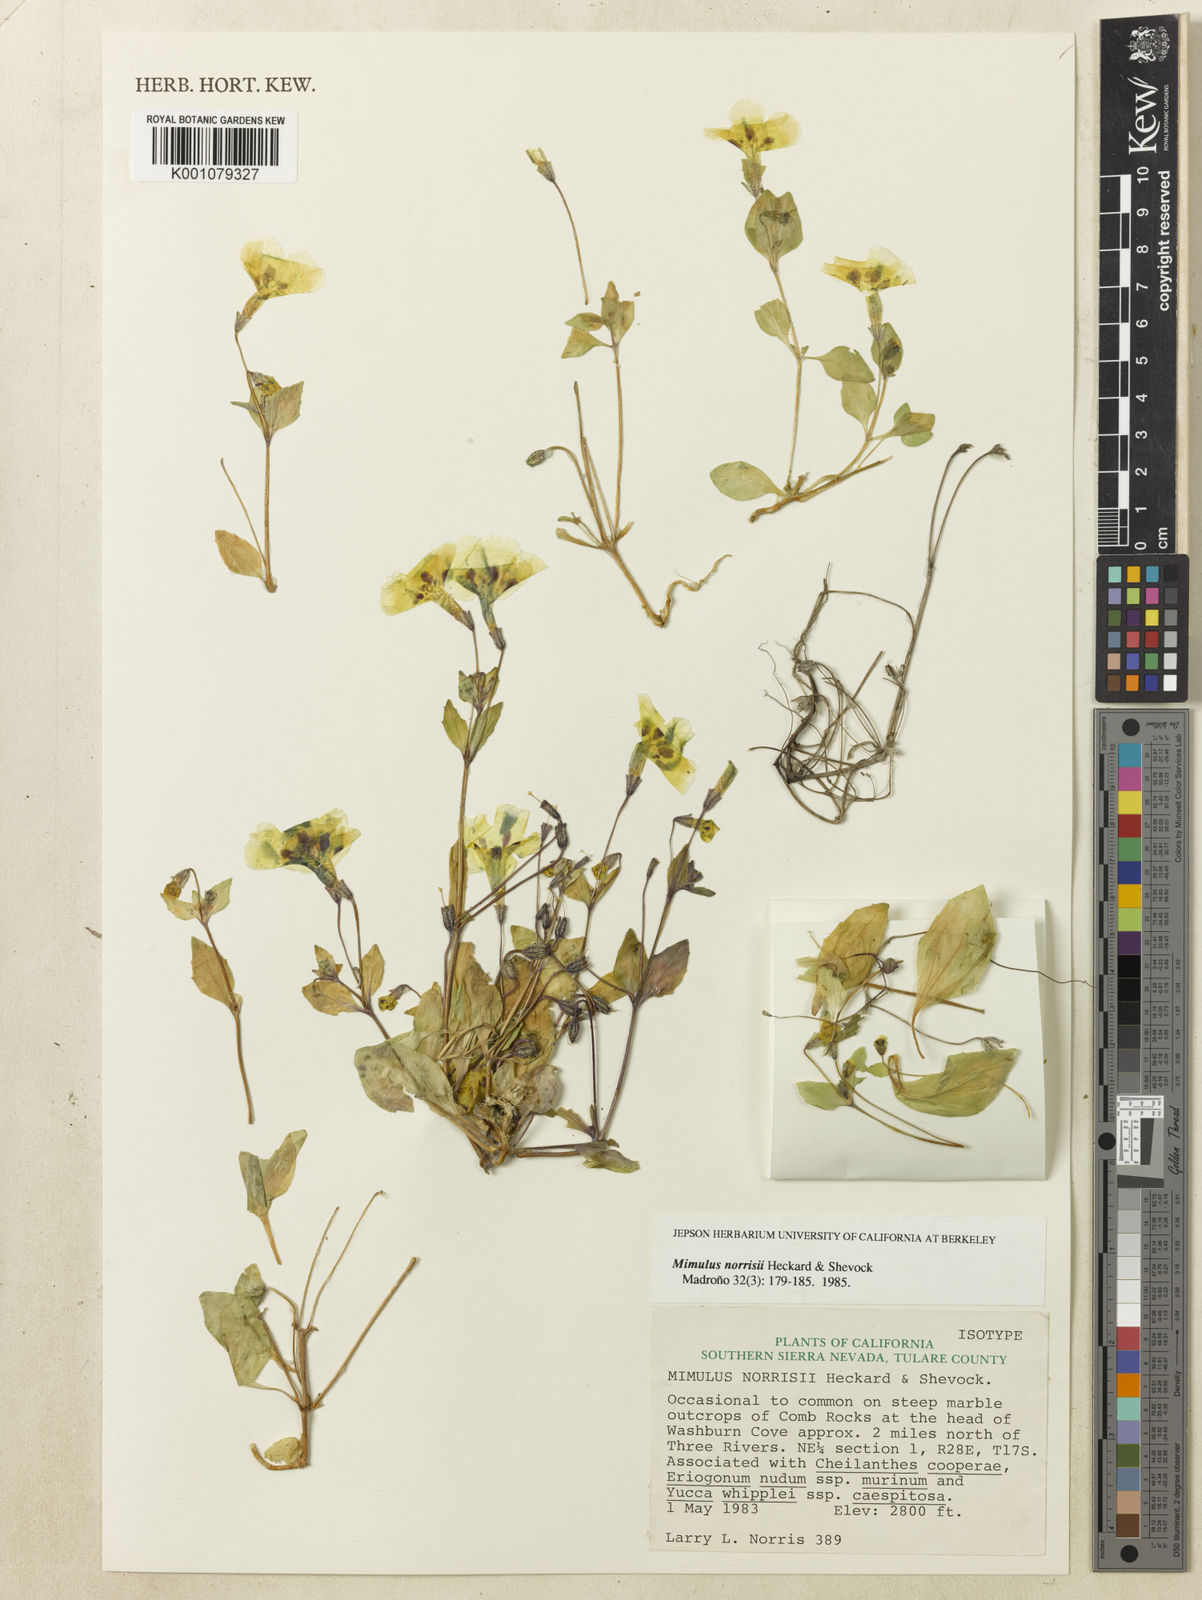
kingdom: Plantae
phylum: Tracheophyta
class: Magnoliopsida
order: Lamiales
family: Phrymaceae
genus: Erythranthe
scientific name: Erythranthe norrisii
